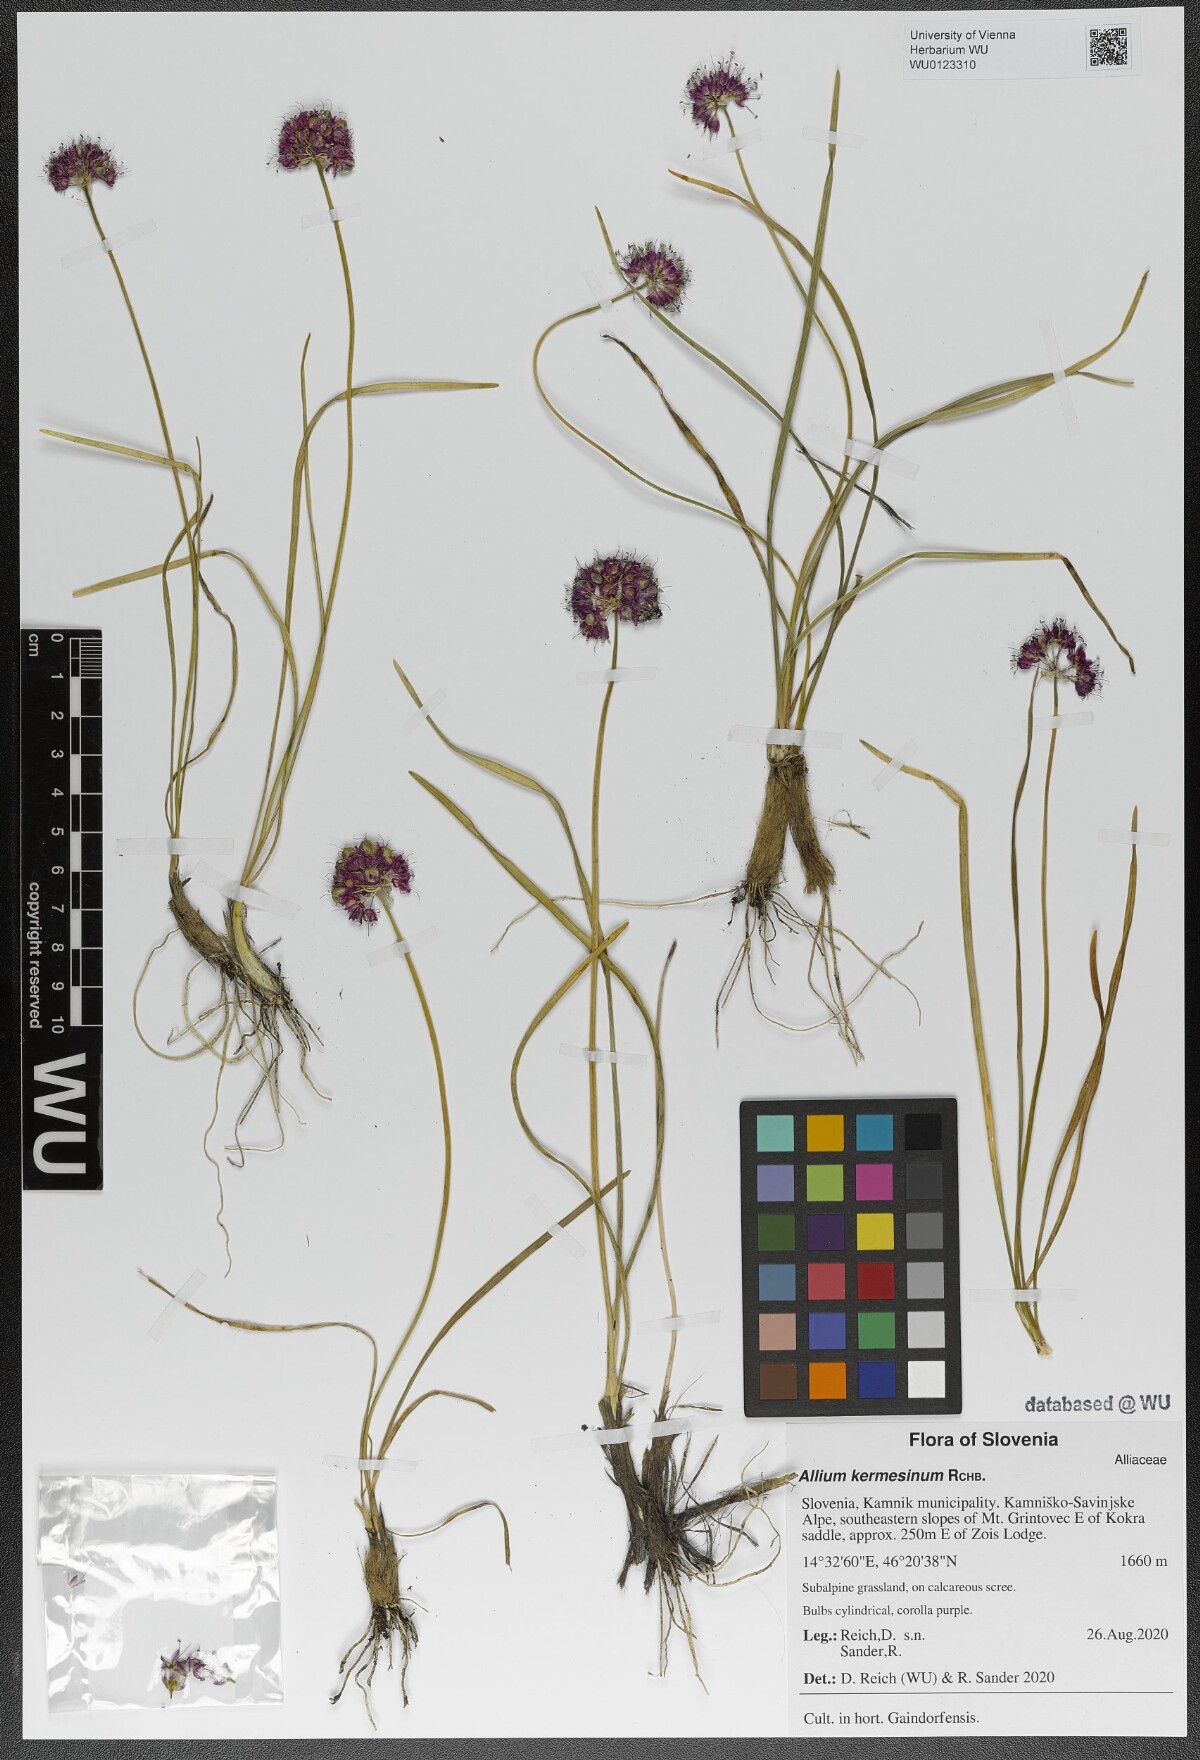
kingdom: Plantae
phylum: Tracheophyta
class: Liliopsida
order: Asparagales
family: Amaryllidaceae
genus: Allium
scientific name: Allium kermesinum
